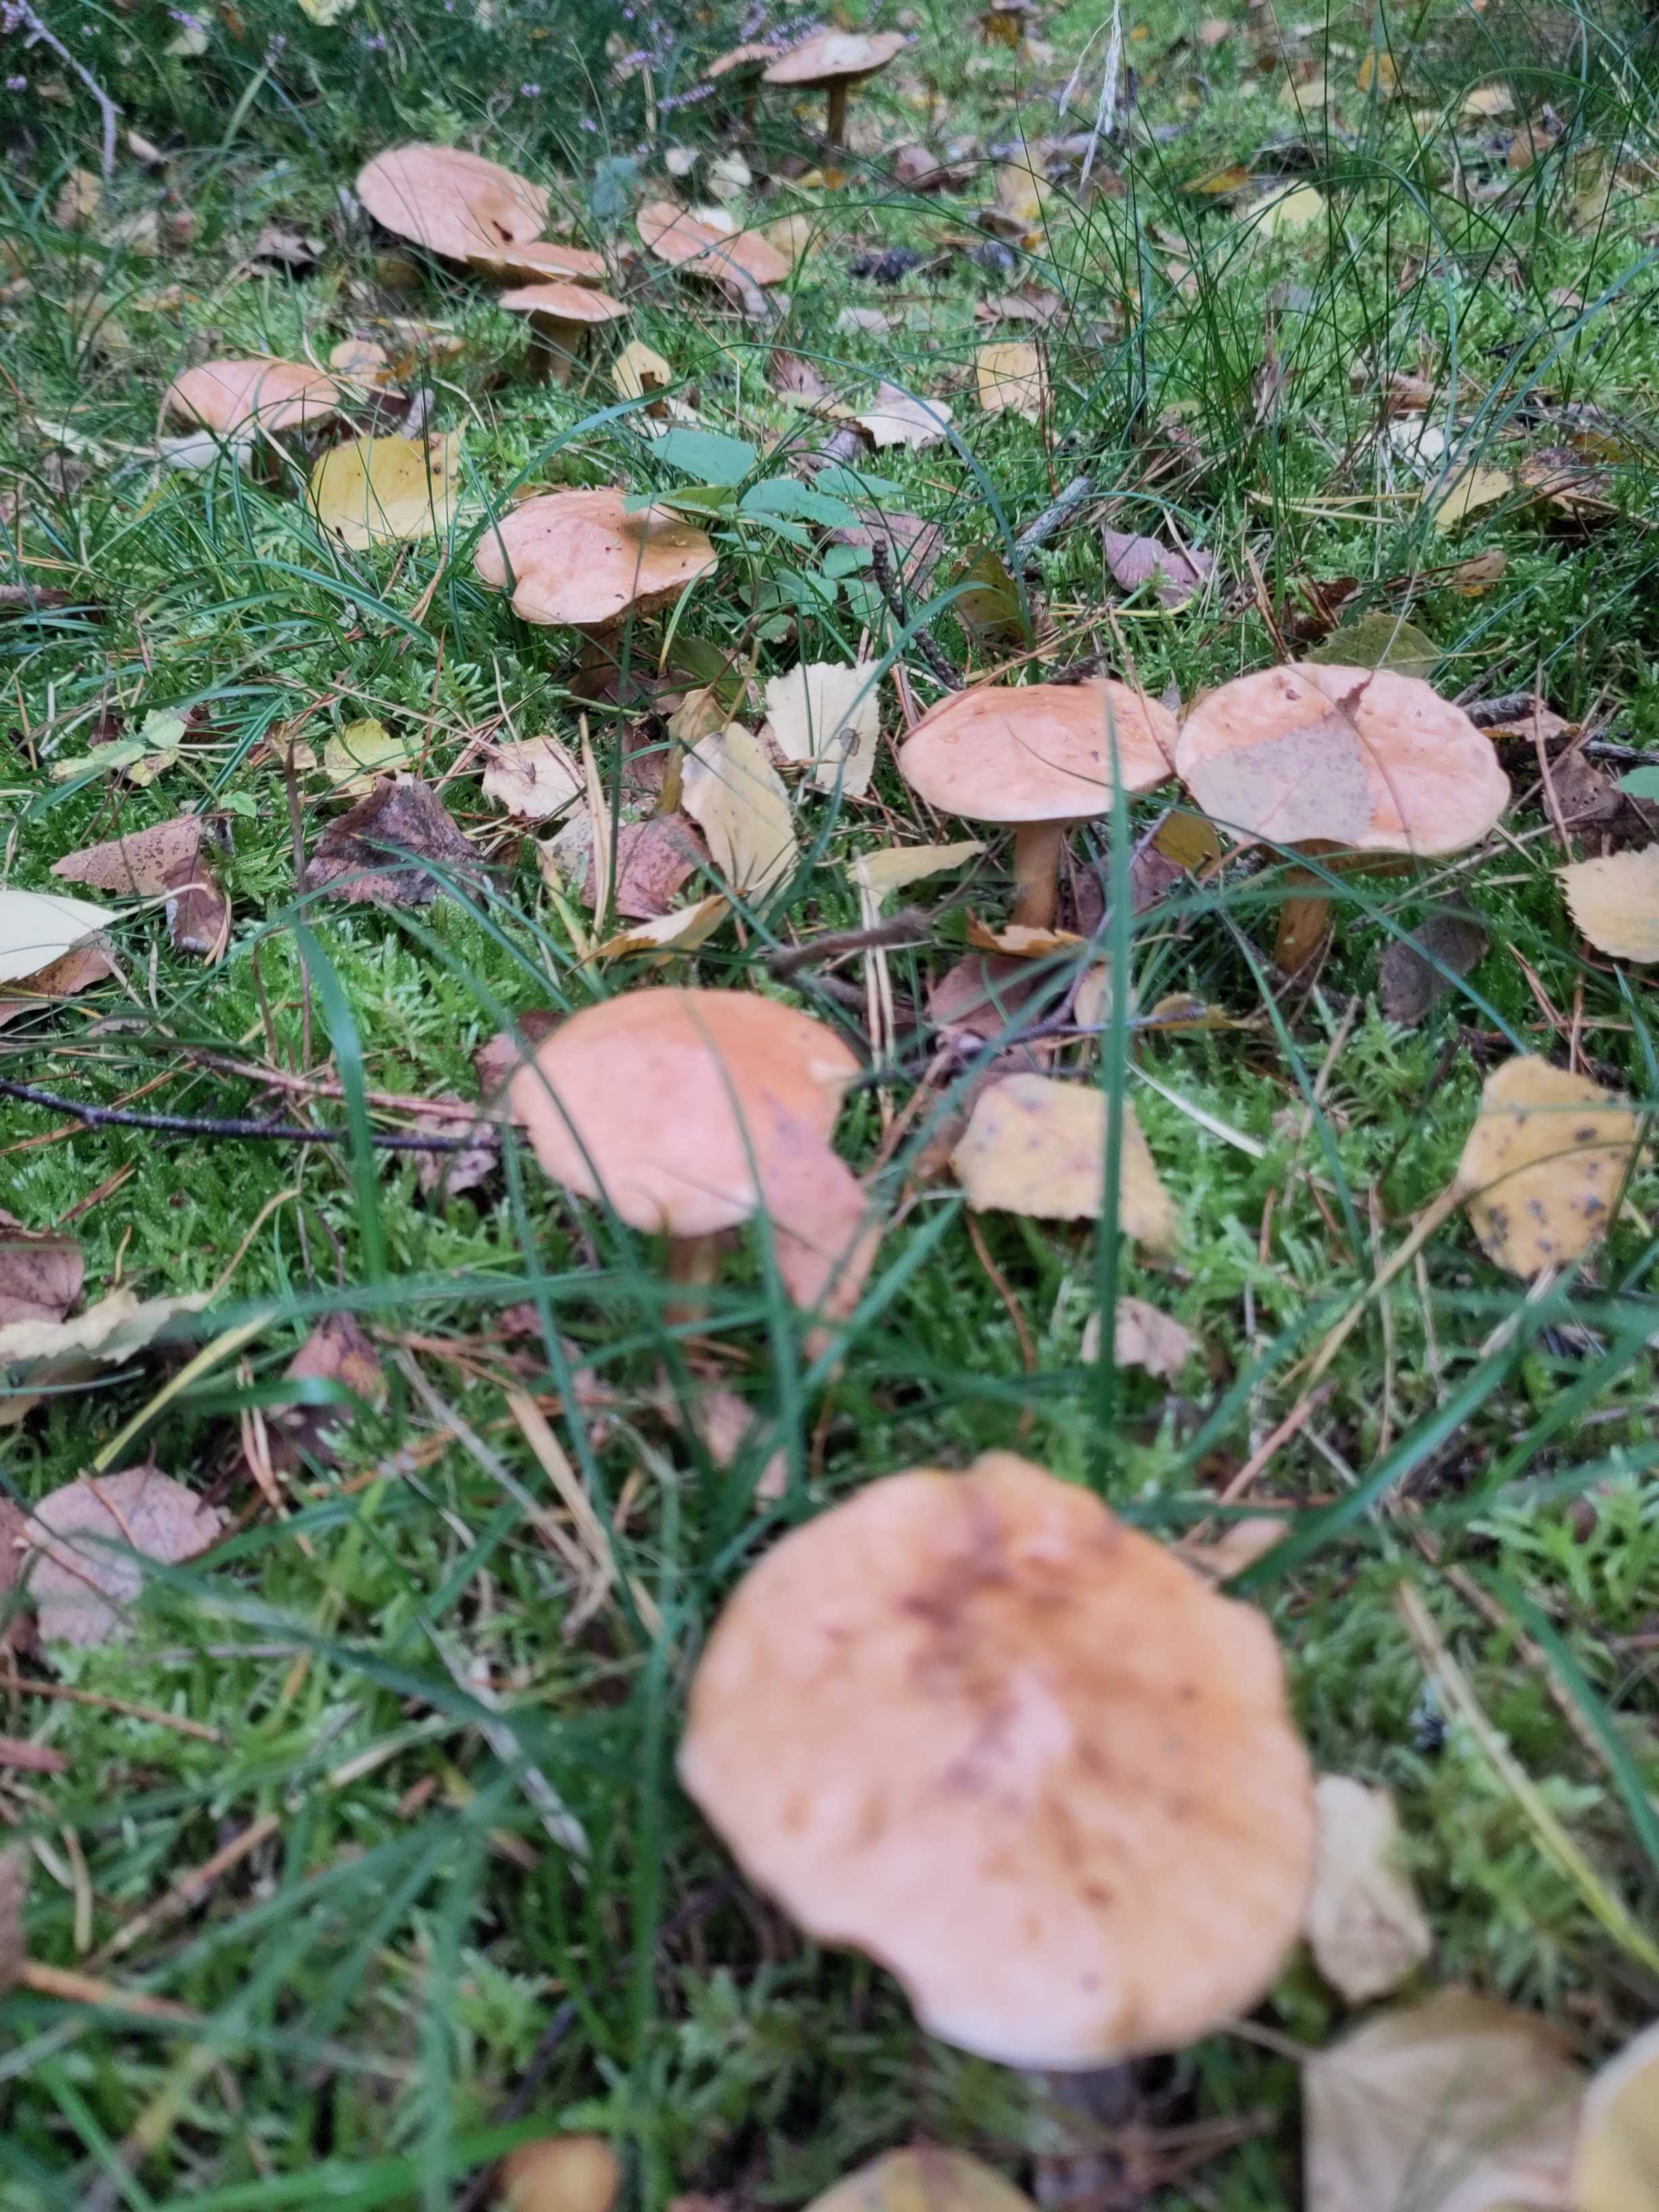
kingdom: Fungi
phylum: Basidiomycota
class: Agaricomycetes
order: Boletales
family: Suillaceae
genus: Suillus
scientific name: Suillus bovinus
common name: grovporet slimrørhat
